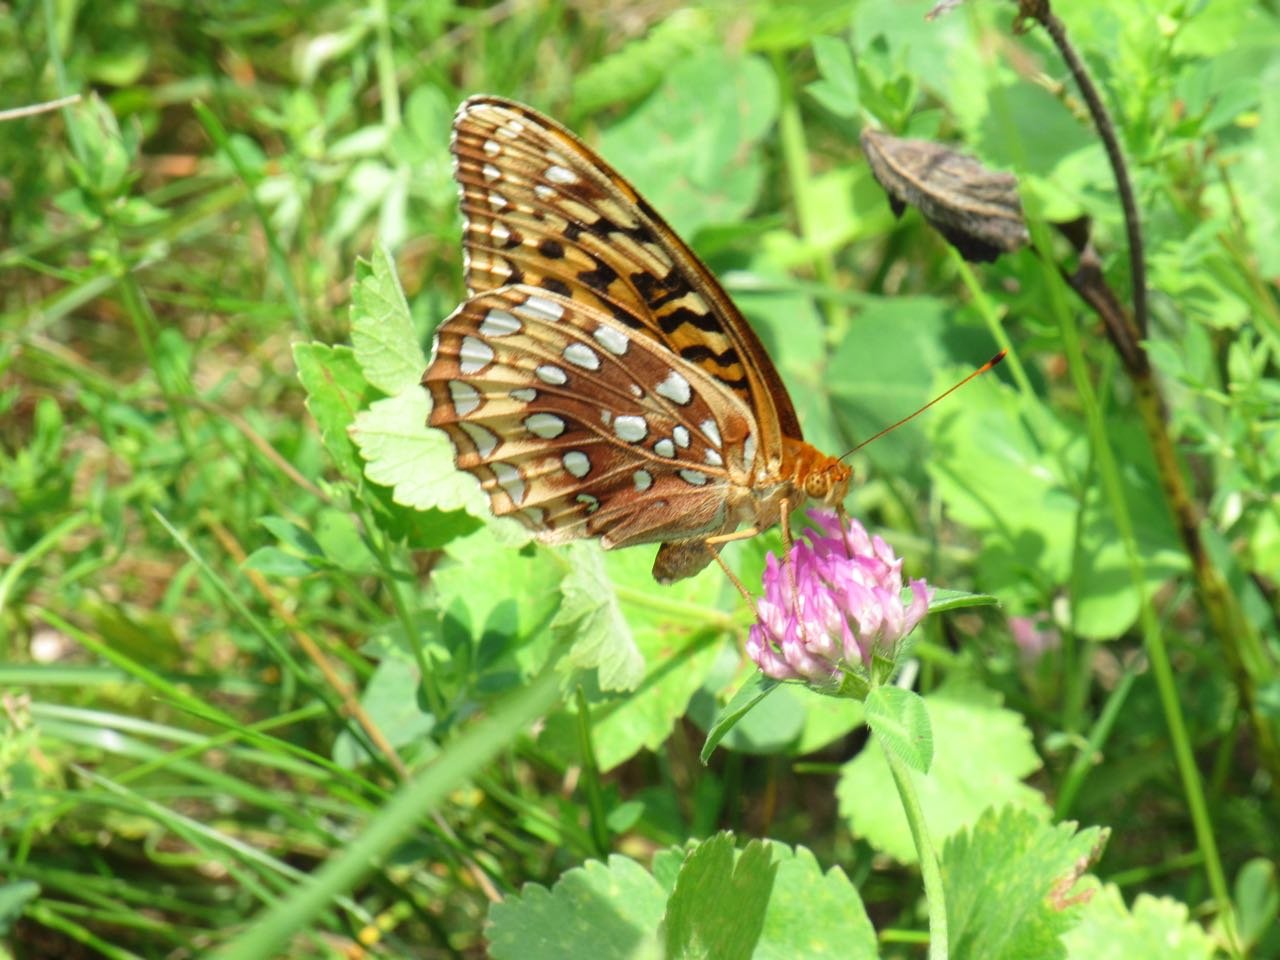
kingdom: Animalia
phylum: Arthropoda
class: Insecta
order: Lepidoptera
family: Nymphalidae
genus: Speyeria
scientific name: Speyeria cybele
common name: Great Spangled Fritillary
